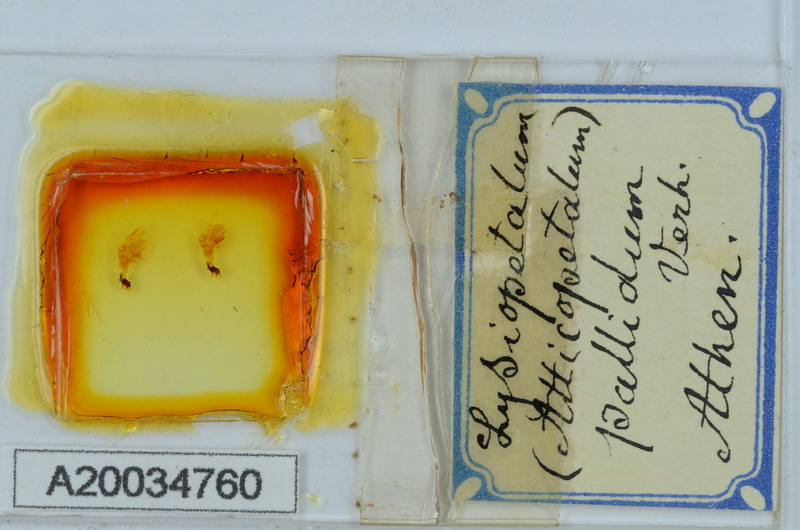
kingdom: Animalia
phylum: Arthropoda
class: Diplopoda
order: Callipodida
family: Schizopetalidae
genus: Acanthopetalum
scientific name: Acanthopetalum blanci
